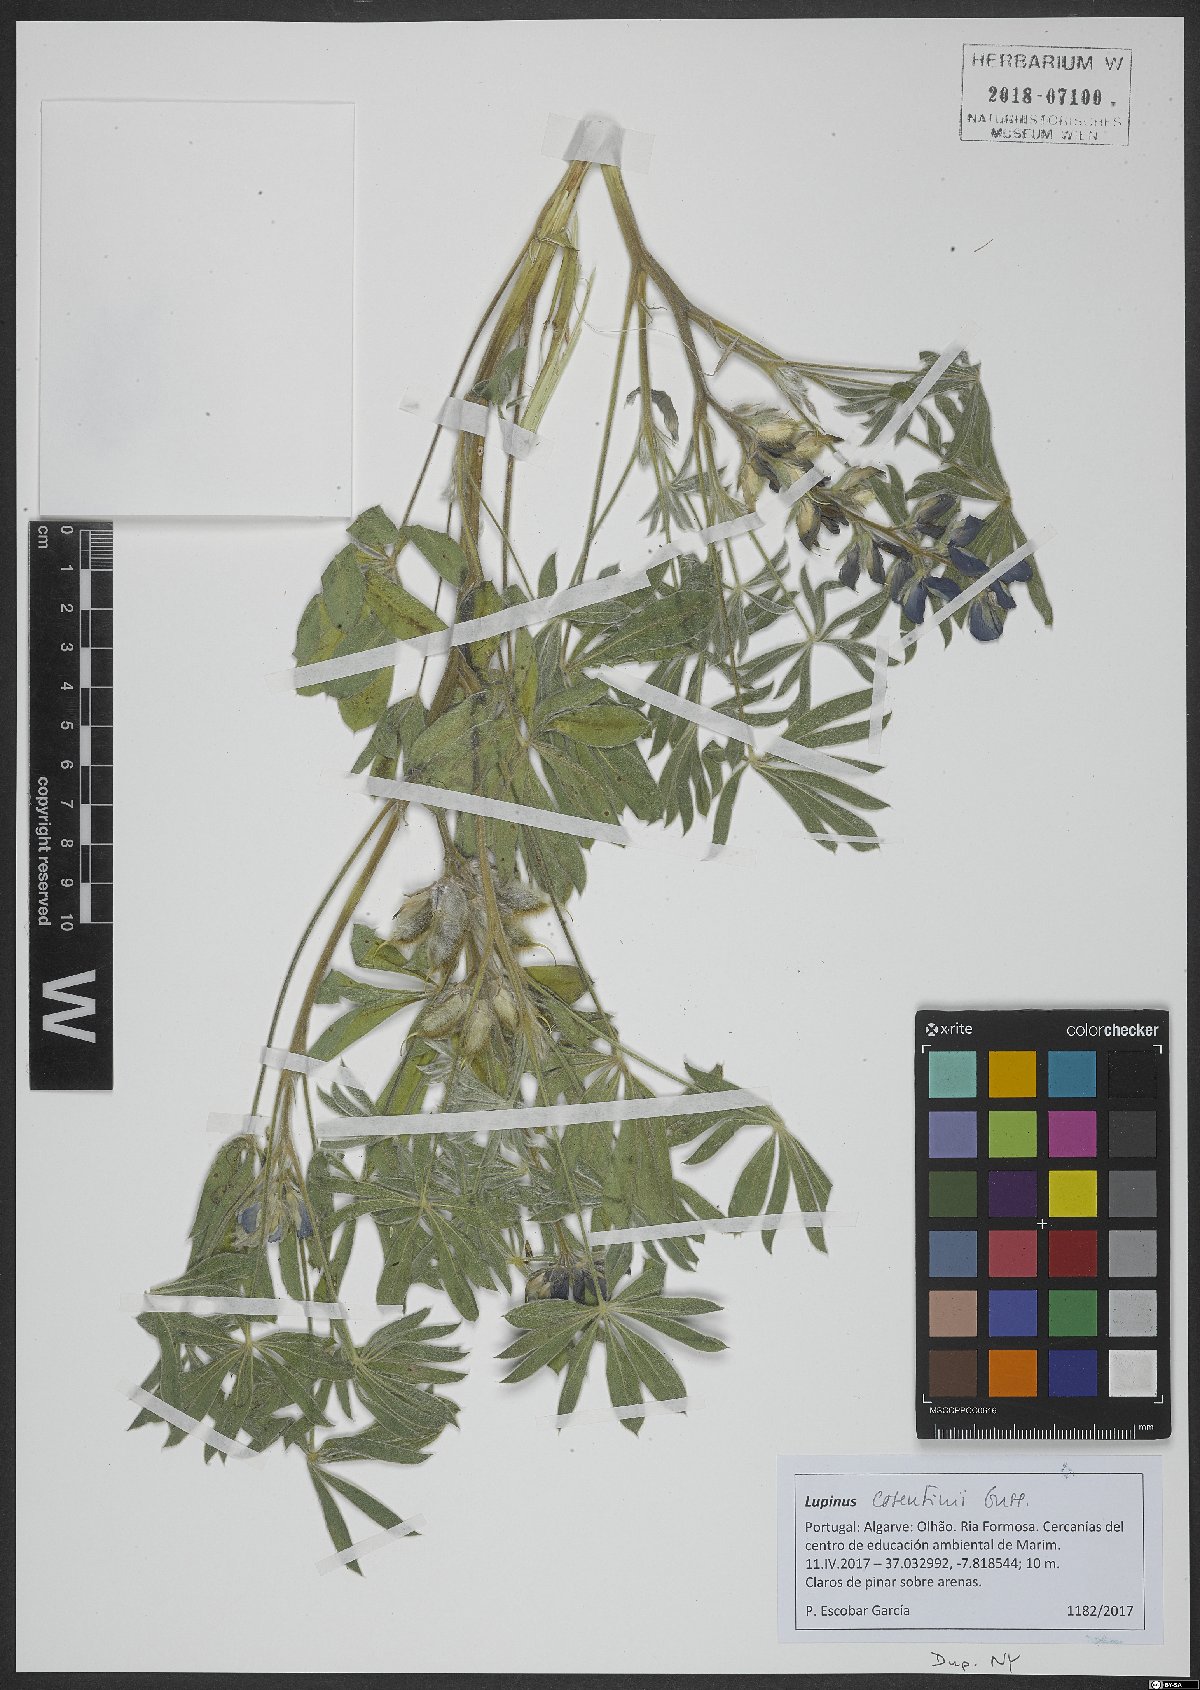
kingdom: Plantae
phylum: Tracheophyta
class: Magnoliopsida
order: Fabales
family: Fabaceae
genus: Lupinus
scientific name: Lupinus cosentinii
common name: Hairy blue lupin
